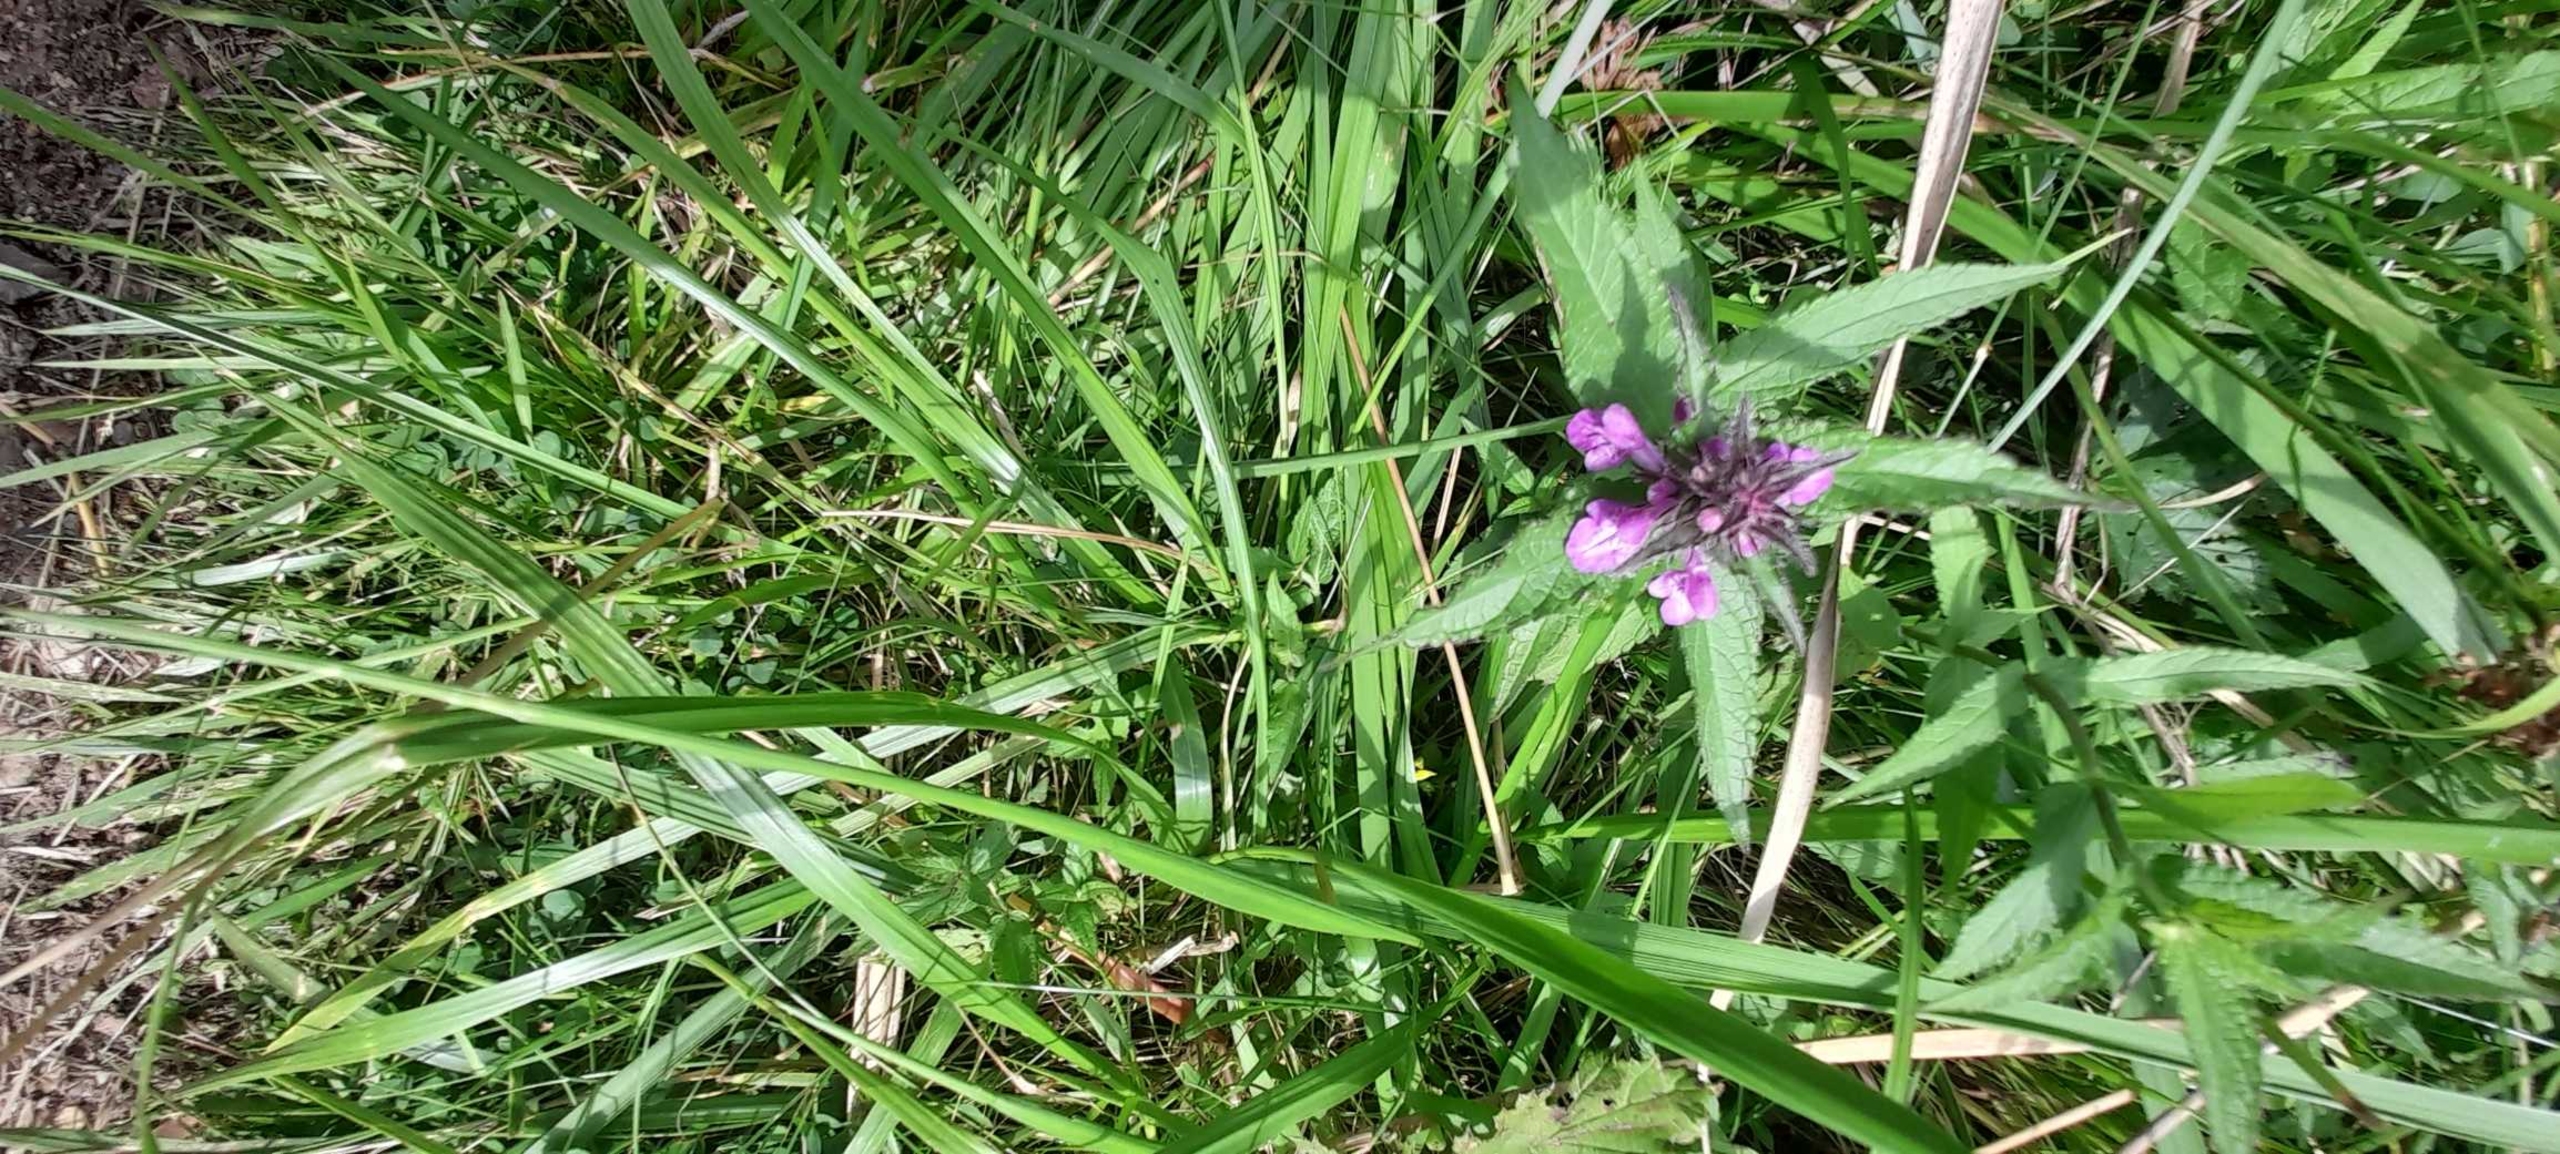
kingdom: Plantae
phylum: Tracheophyta
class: Magnoliopsida
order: Lamiales
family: Lamiaceae
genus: Stachys
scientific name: Stachys palustris
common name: Kær-galtetand
